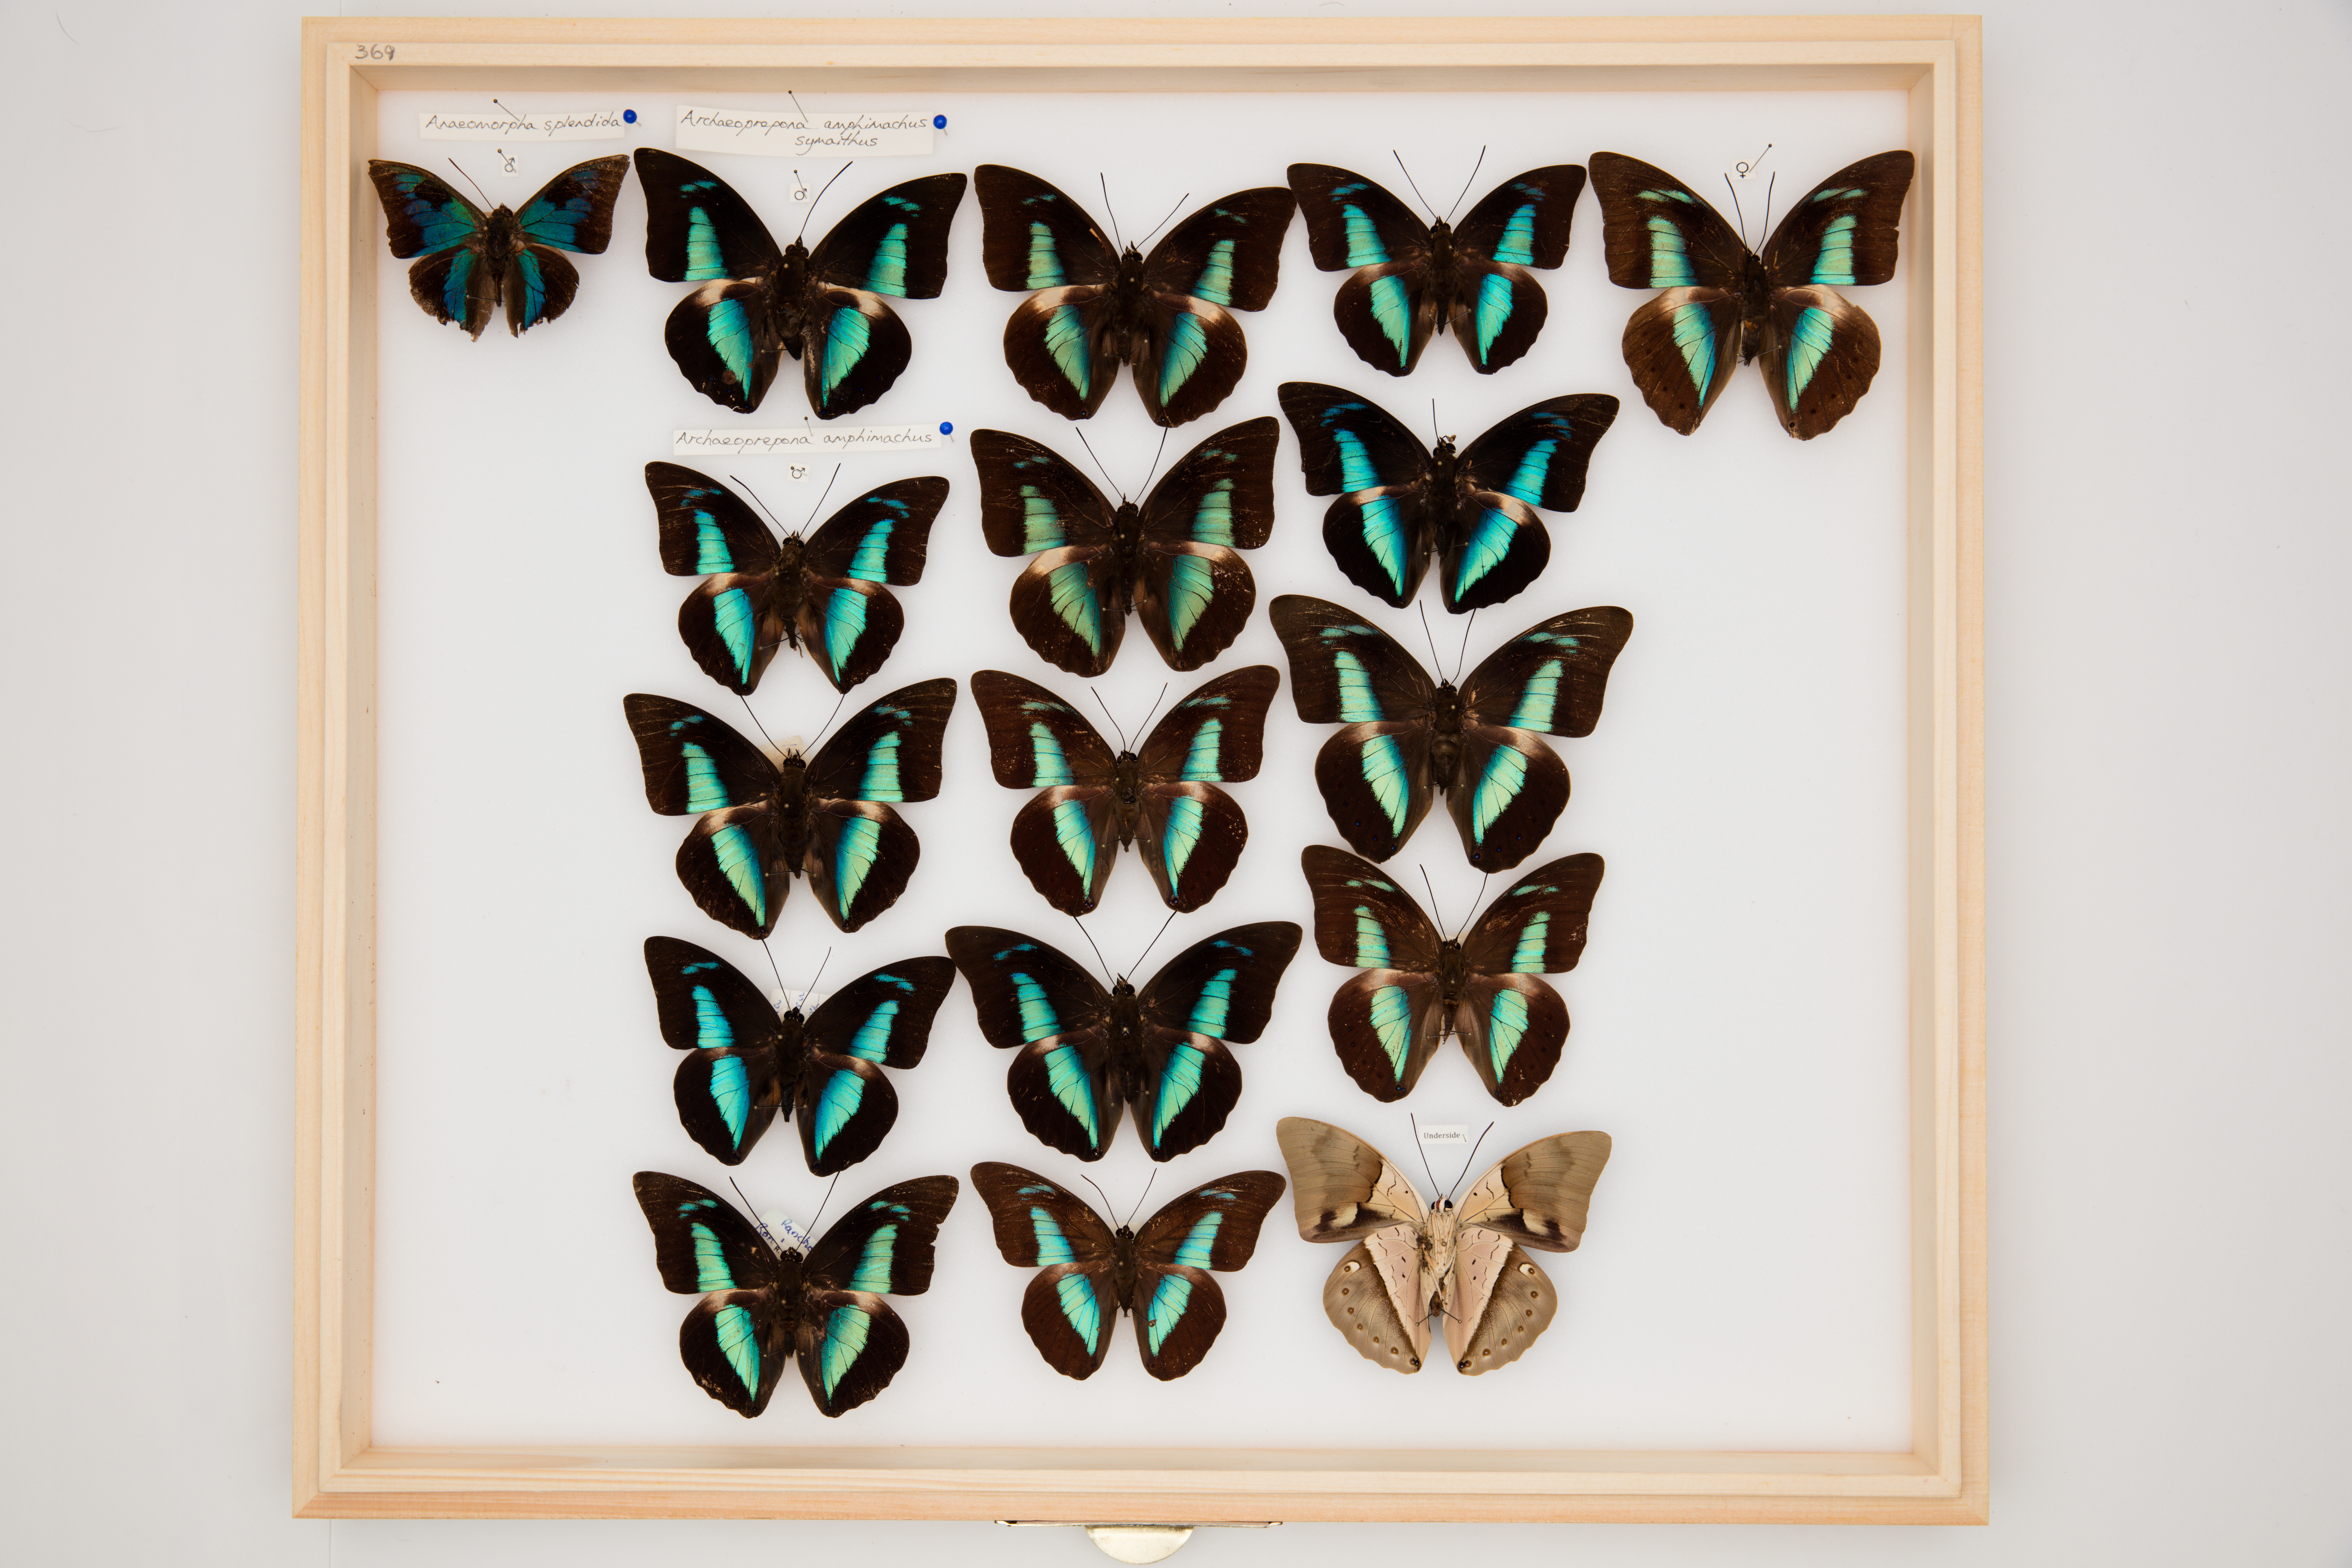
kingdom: Animalia
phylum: Arthropoda
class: Insecta
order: Lepidoptera
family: Nymphalidae
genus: Anaeomorpha
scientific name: Anaeomorpha splendida
